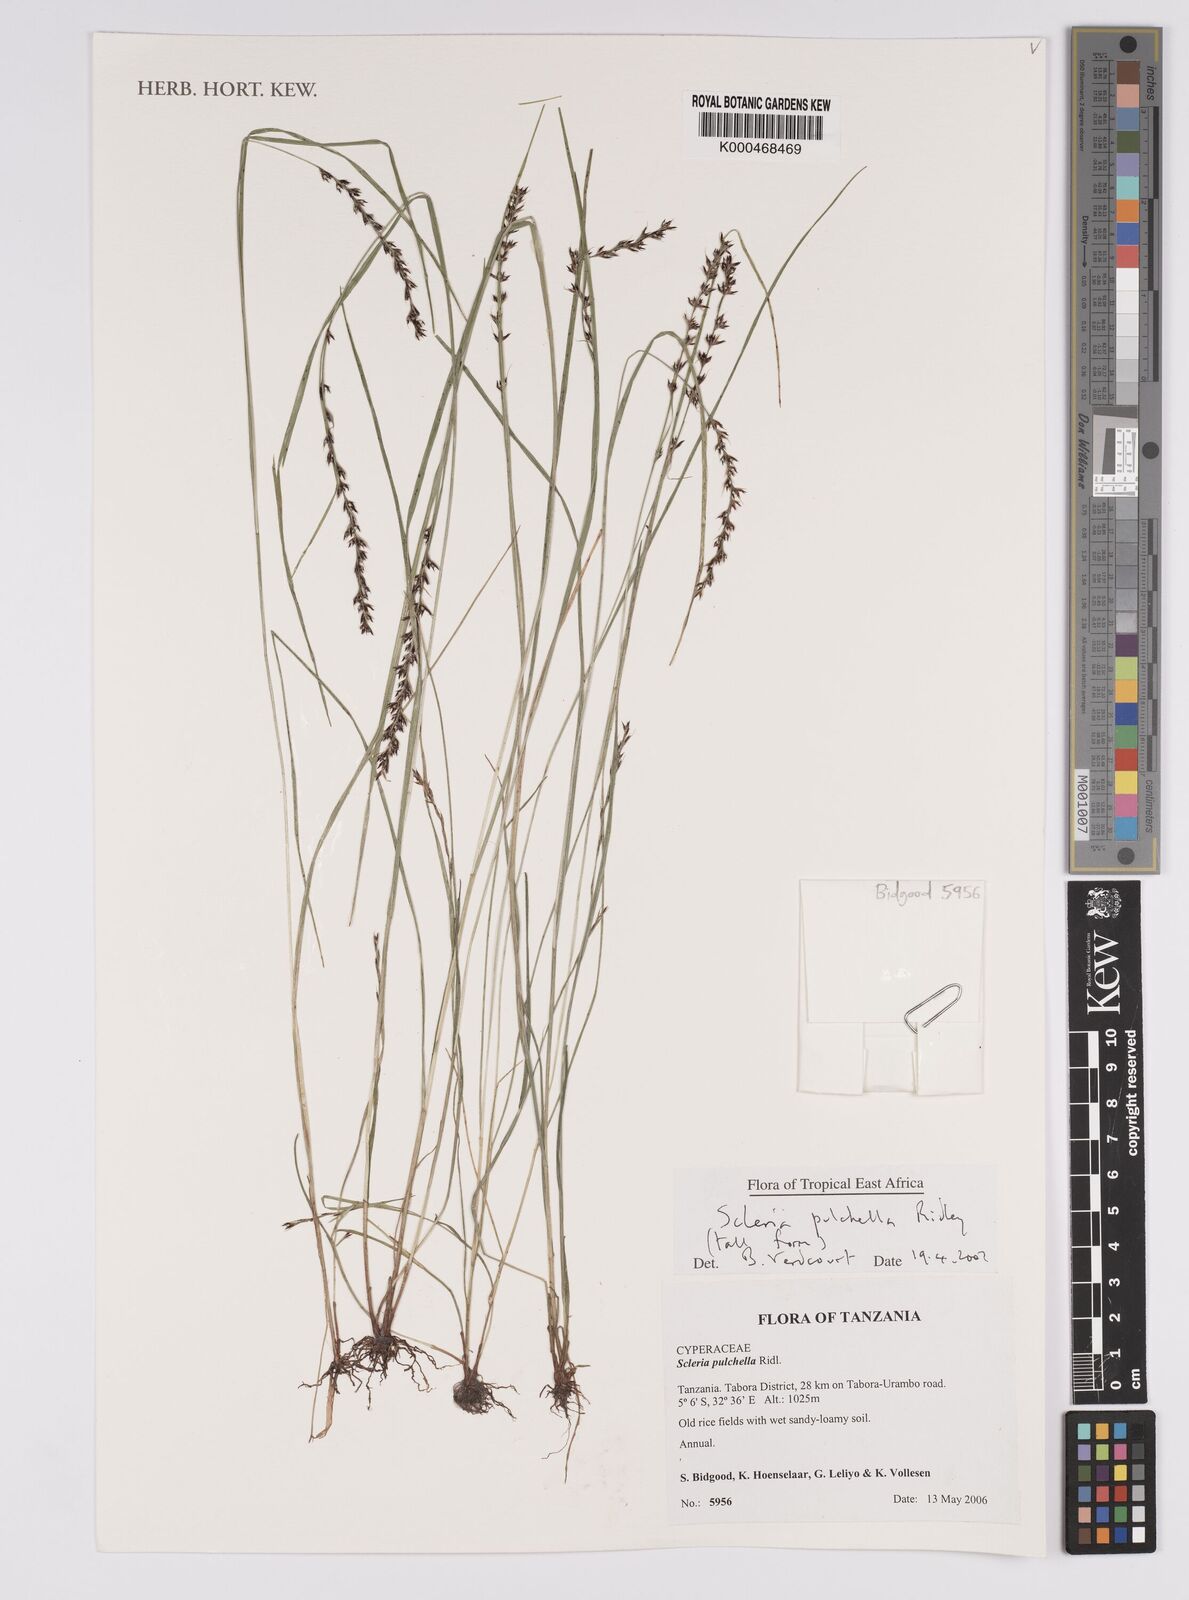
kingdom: Plantae
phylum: Tracheophyta
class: Liliopsida
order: Poales
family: Cyperaceae
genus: Scleria
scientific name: Scleria pulchella
